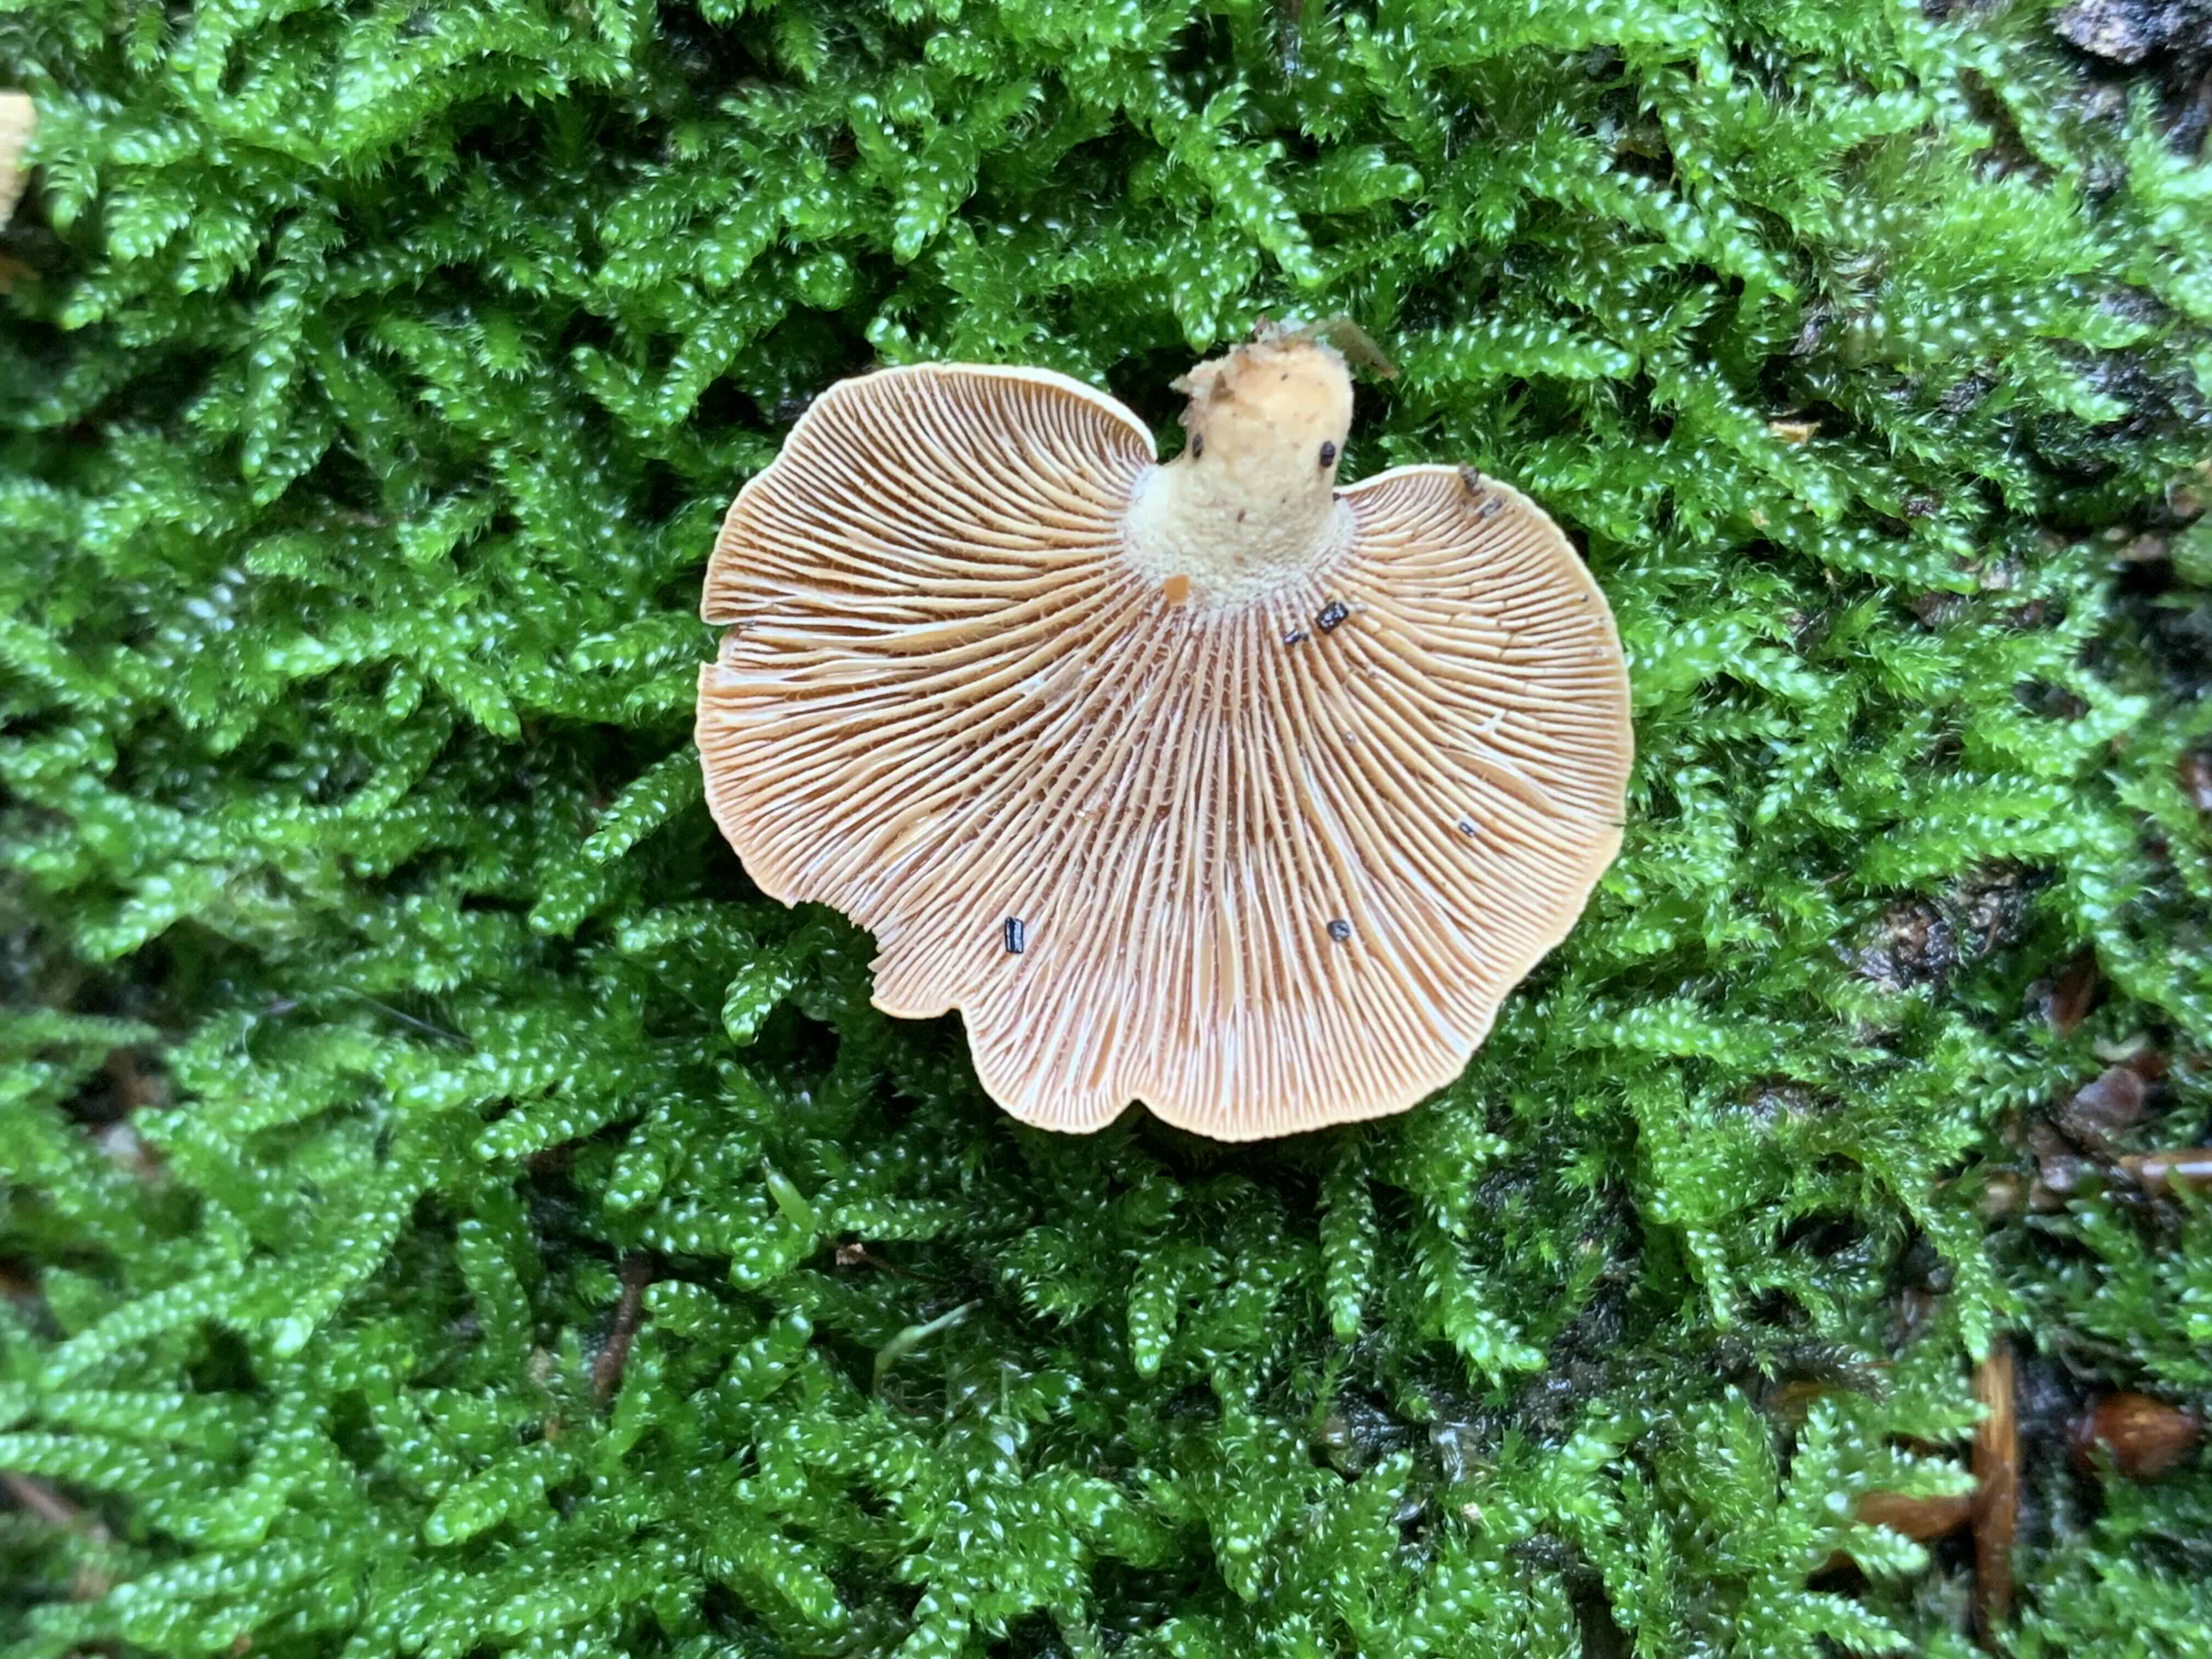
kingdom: Fungi
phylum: Basidiomycota
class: Agaricomycetes
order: Agaricales
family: Mycenaceae
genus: Panellus
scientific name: Panellus stipticus
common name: kliddet epaulethat
